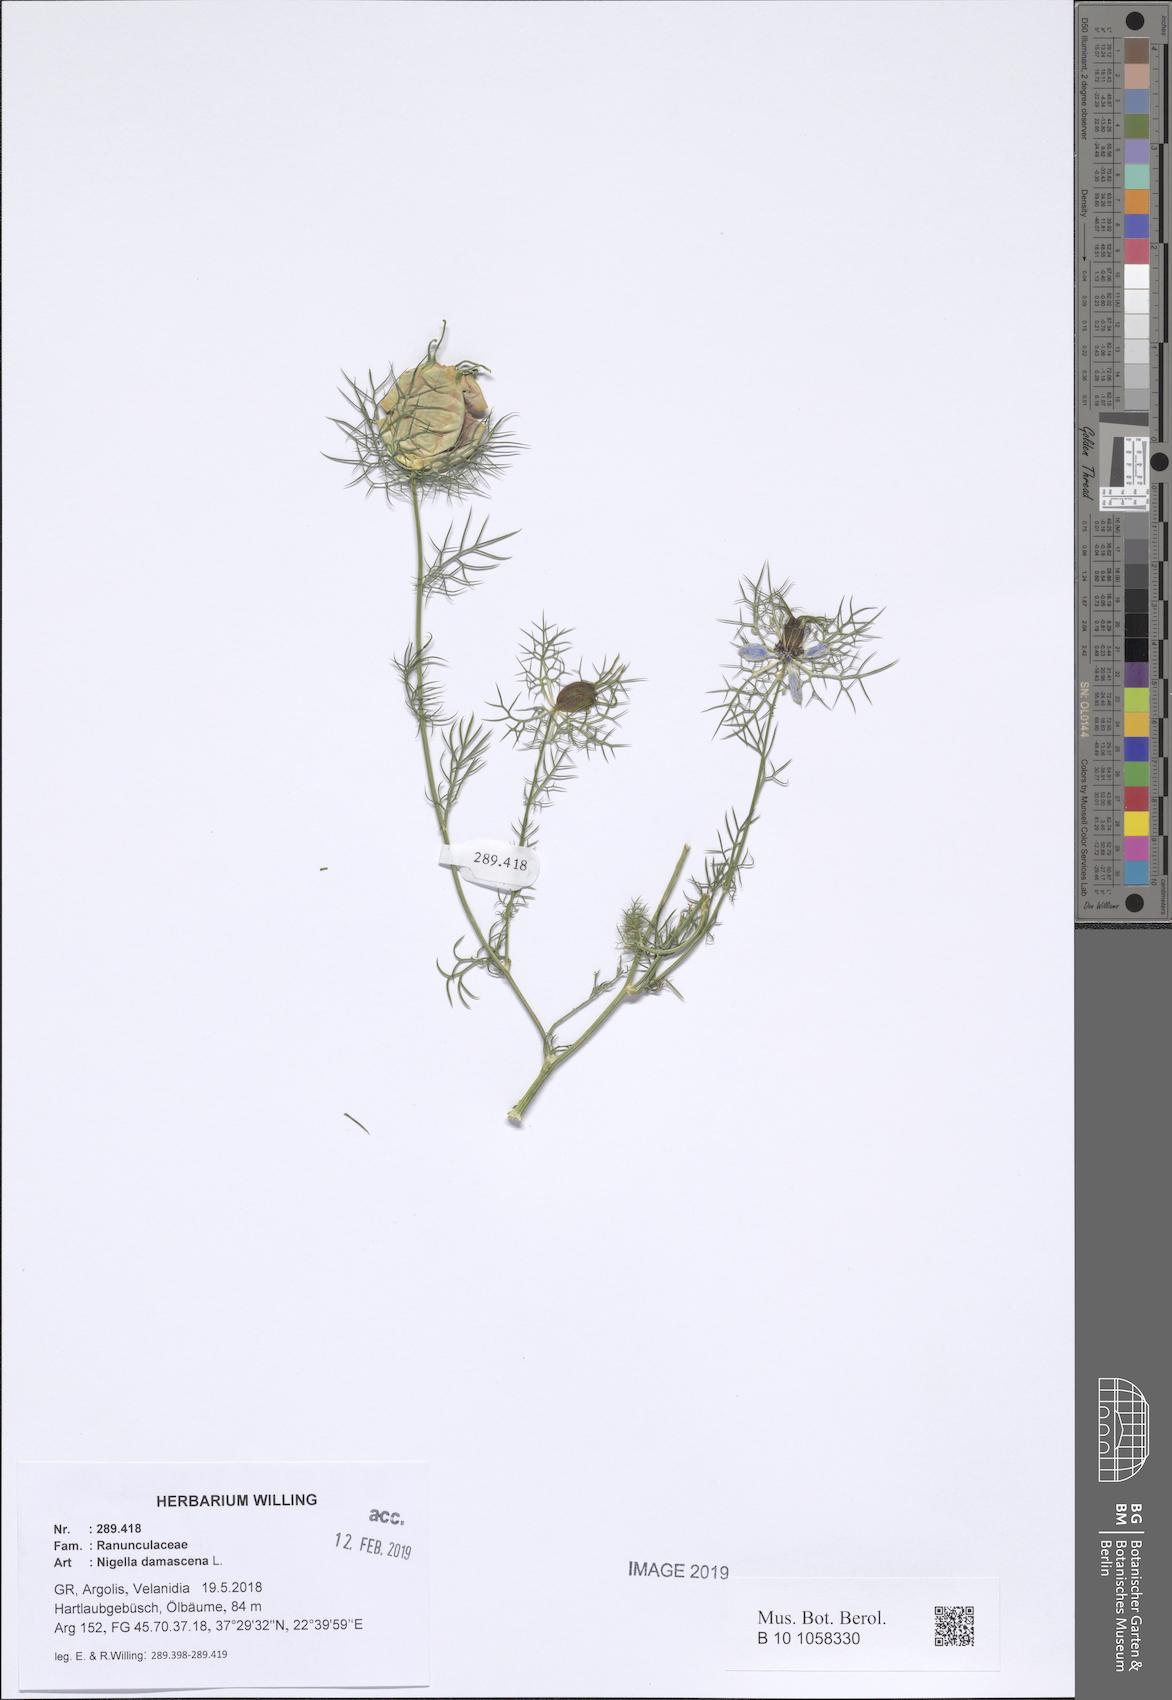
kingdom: Plantae
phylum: Tracheophyta
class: Magnoliopsida
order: Ranunculales
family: Ranunculaceae
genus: Nigella
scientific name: Nigella damascena
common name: Love-in-a-mist
